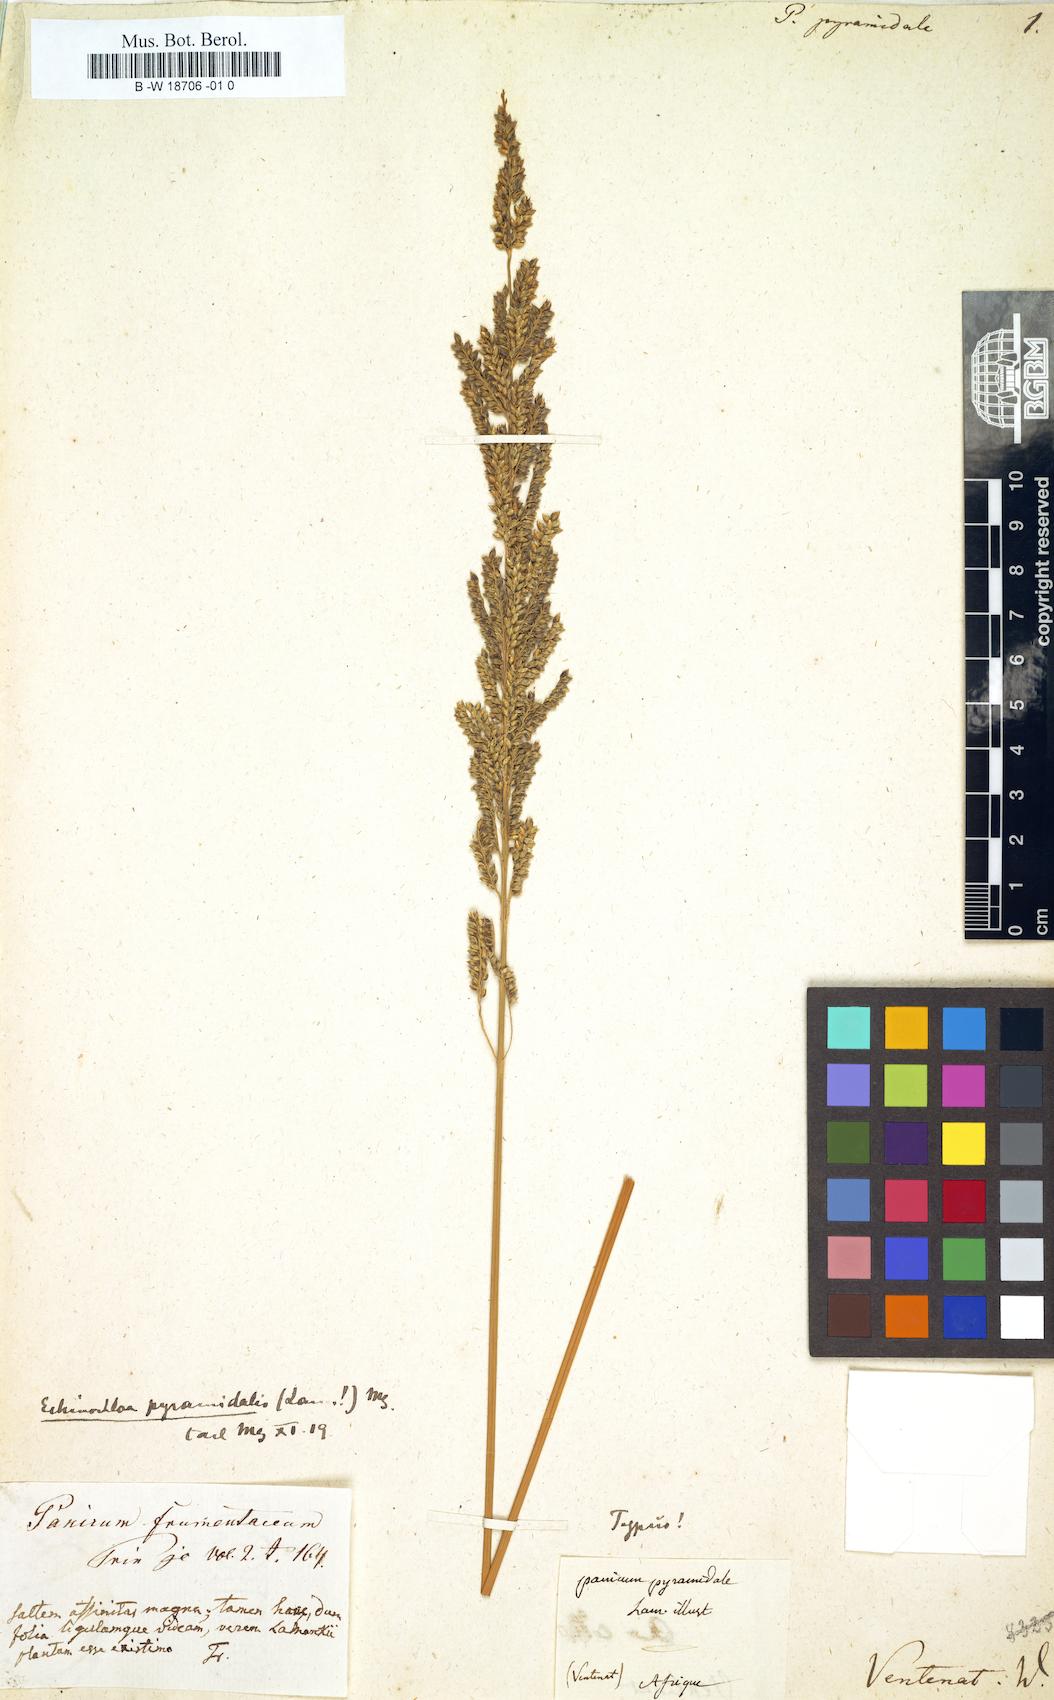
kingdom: Plantae
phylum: Tracheophyta
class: Liliopsida
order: Poales
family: Poaceae
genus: Echinochloa
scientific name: Echinochloa pyramidalis
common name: Antelope grass
